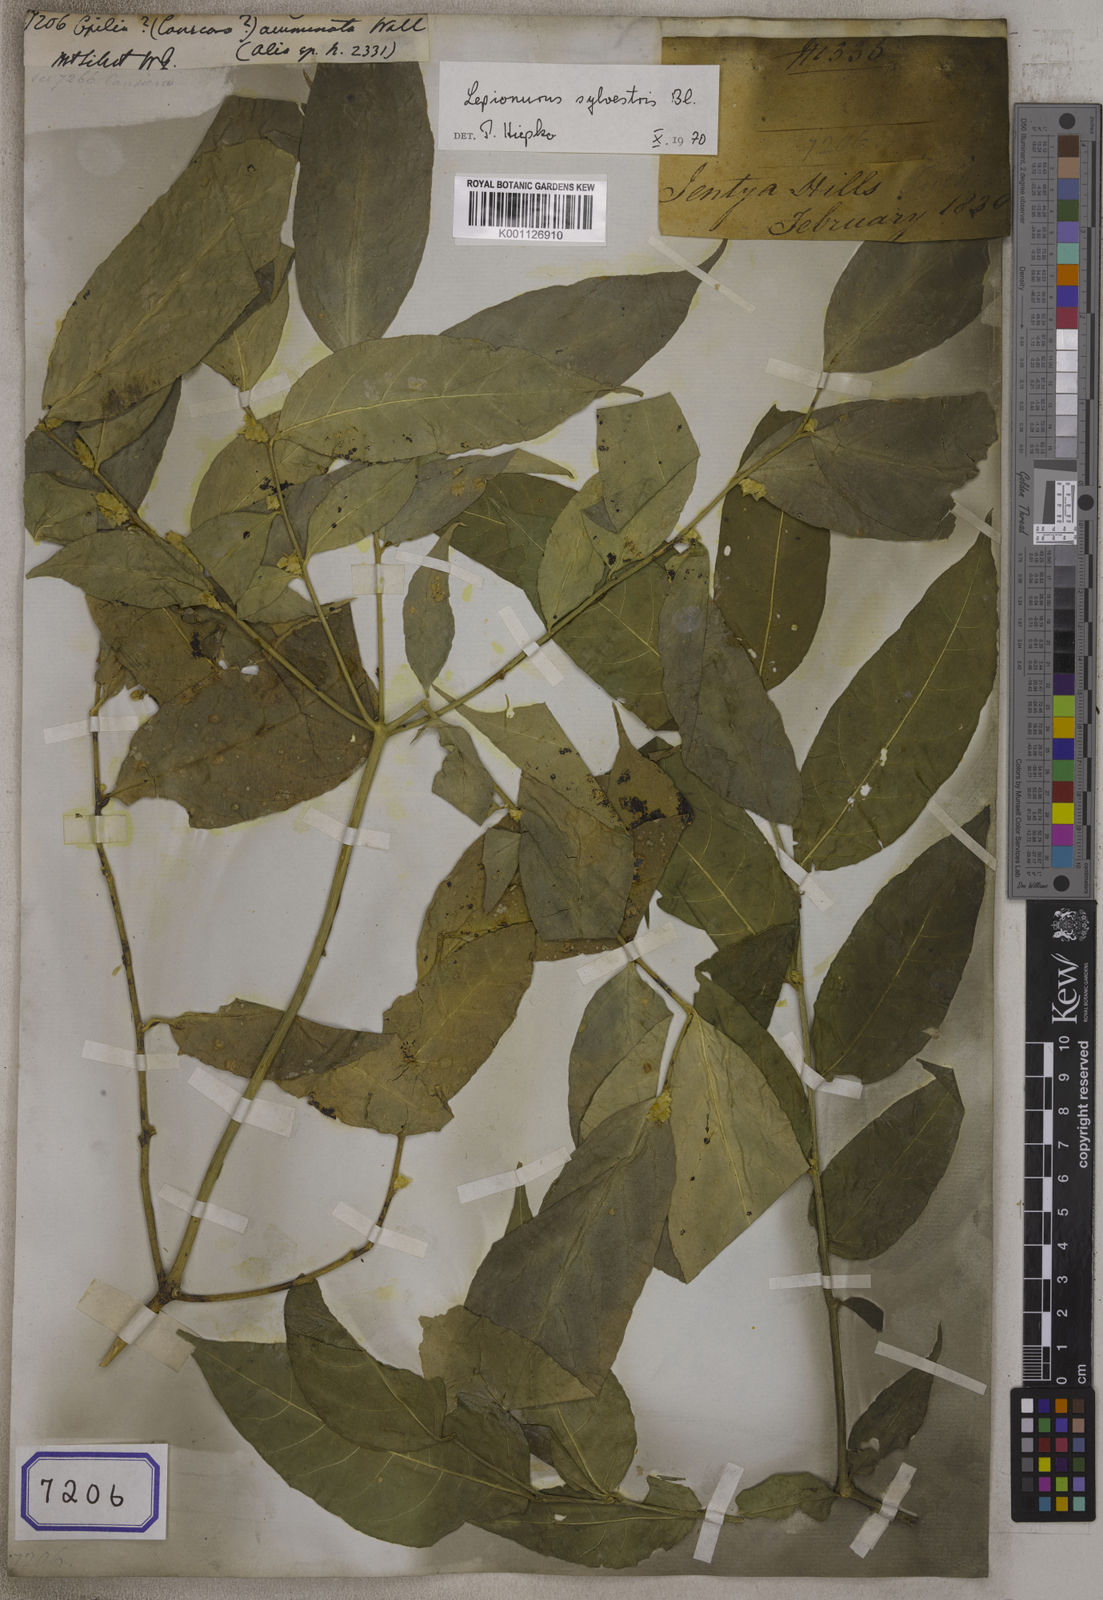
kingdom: Plantae
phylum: Tracheophyta
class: Magnoliopsida
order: Santalales
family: Opiliaceae
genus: Opilia
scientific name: Opilia
